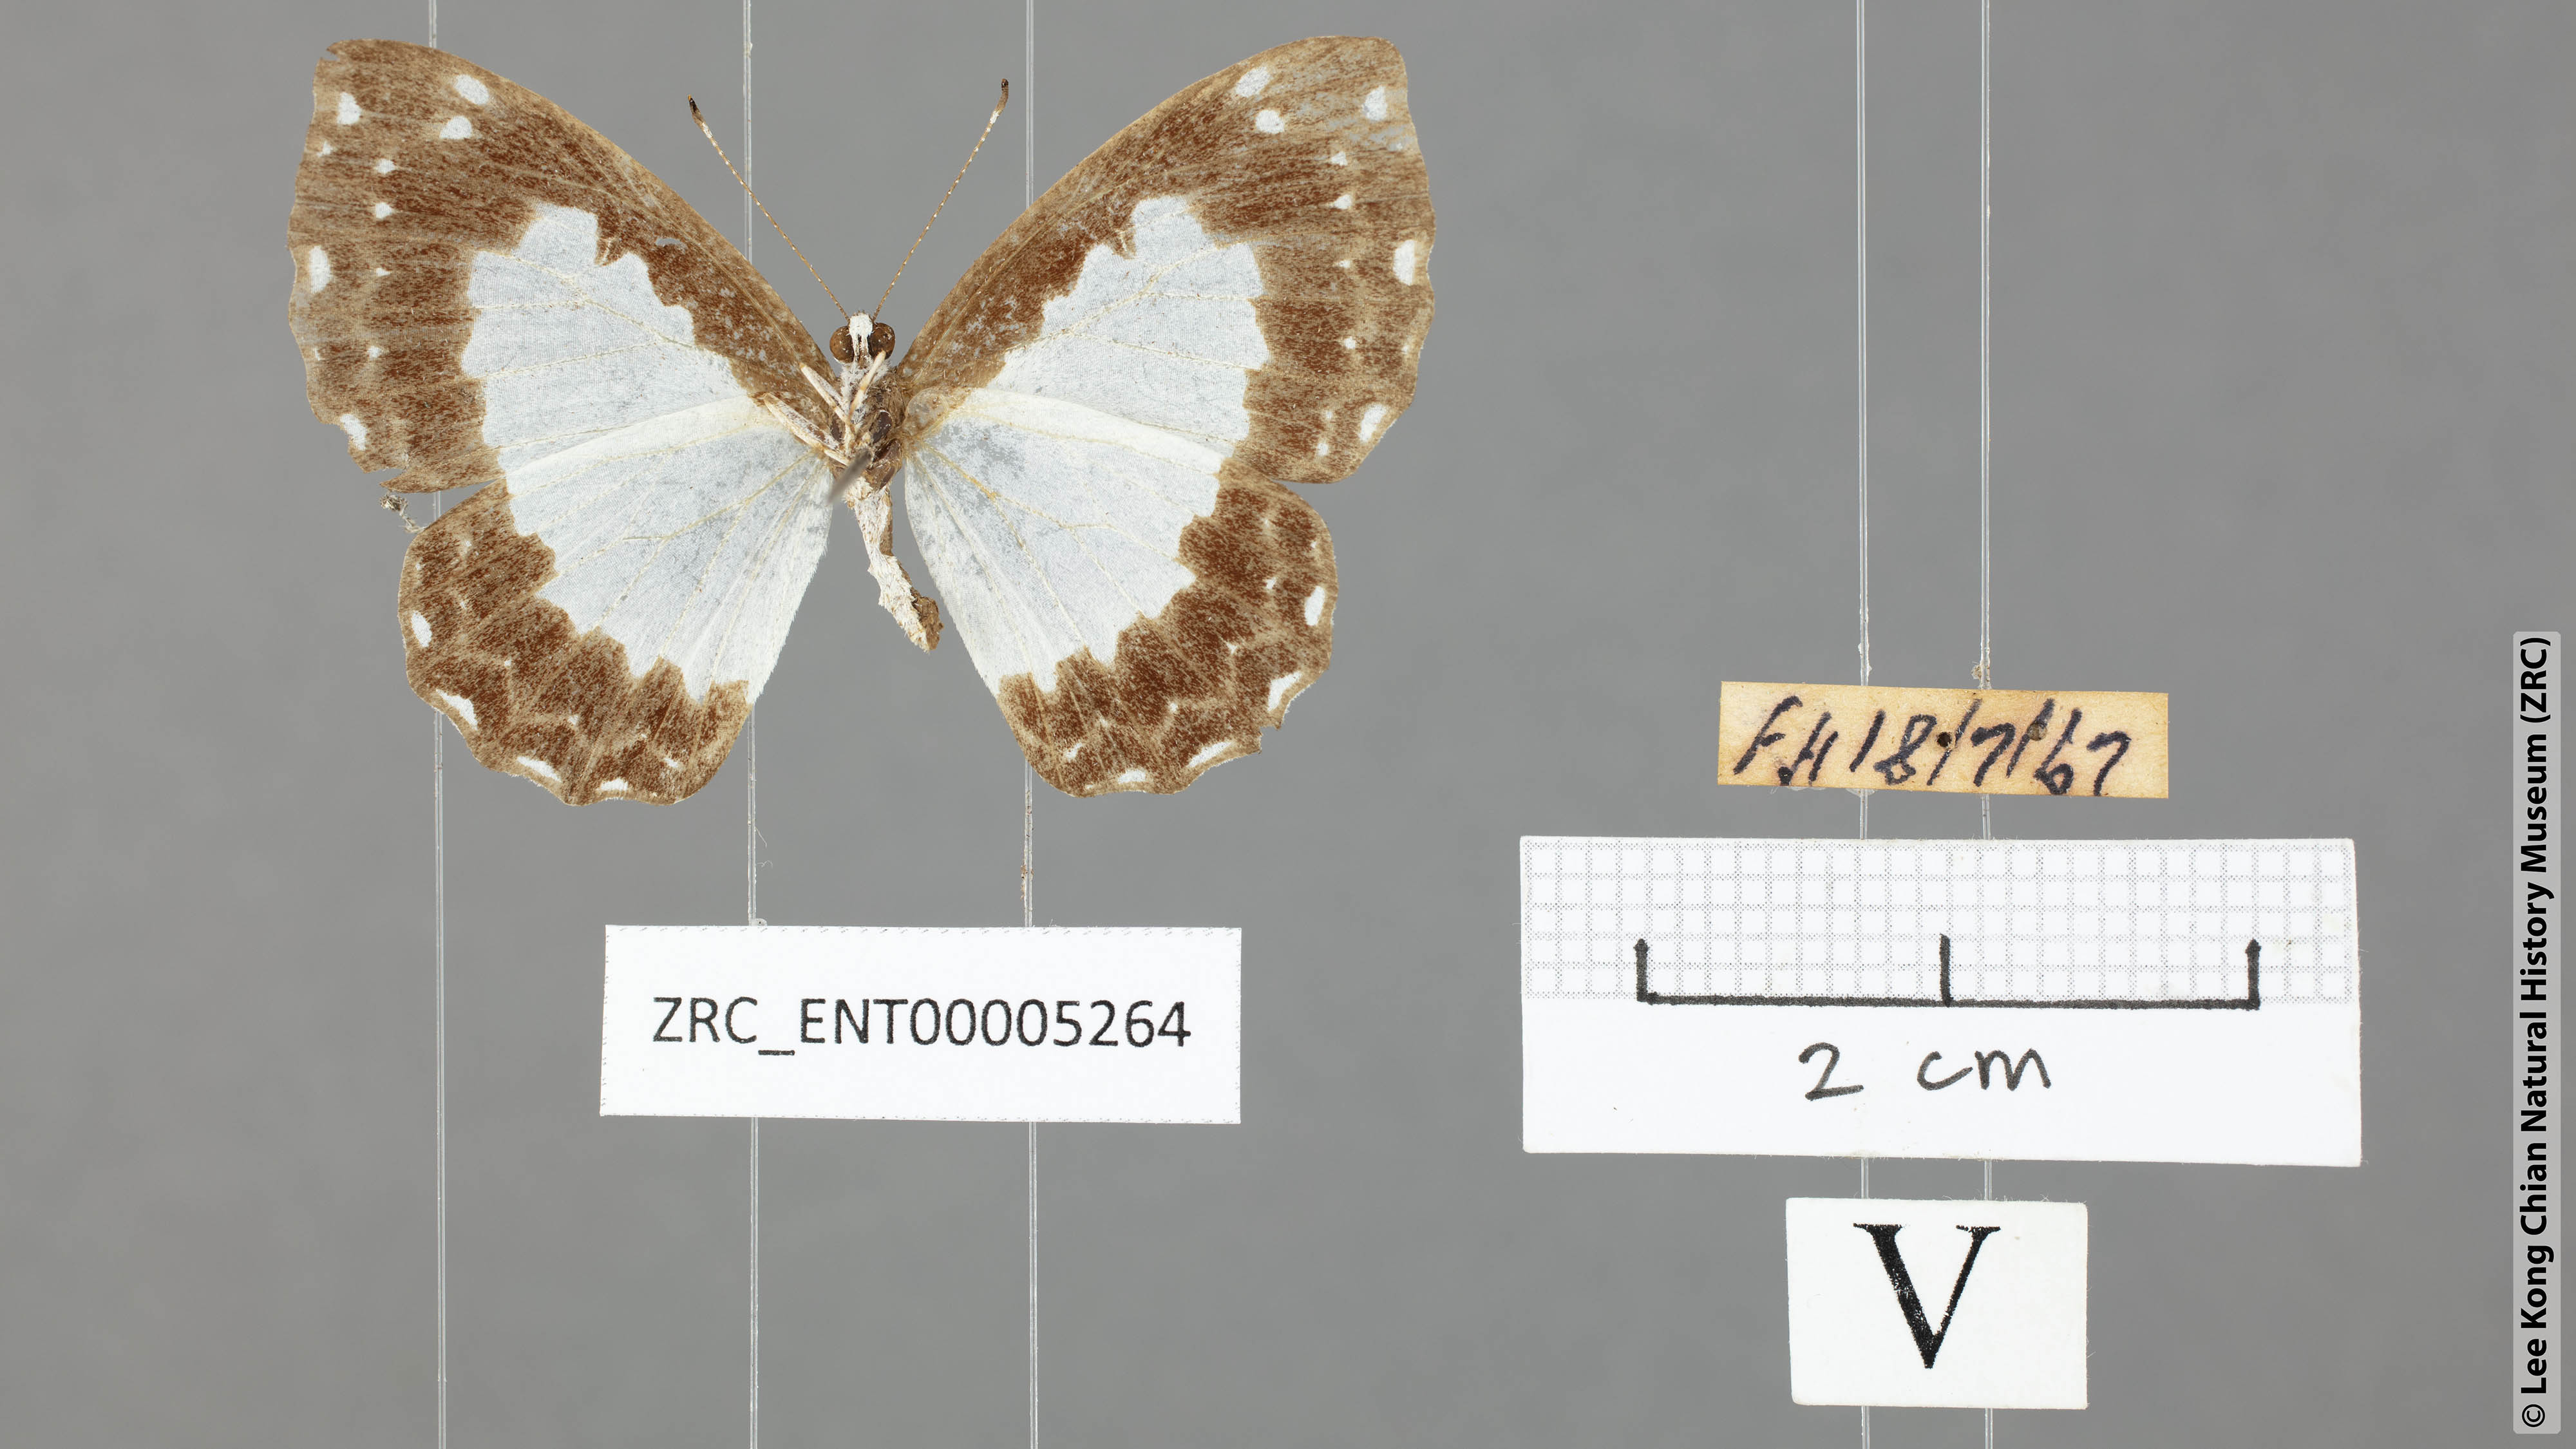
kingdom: Animalia
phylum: Arthropoda
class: Insecta
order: Lepidoptera
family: Riodinidae
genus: Stiboges
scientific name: Stiboges nymphidia
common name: Columbine
